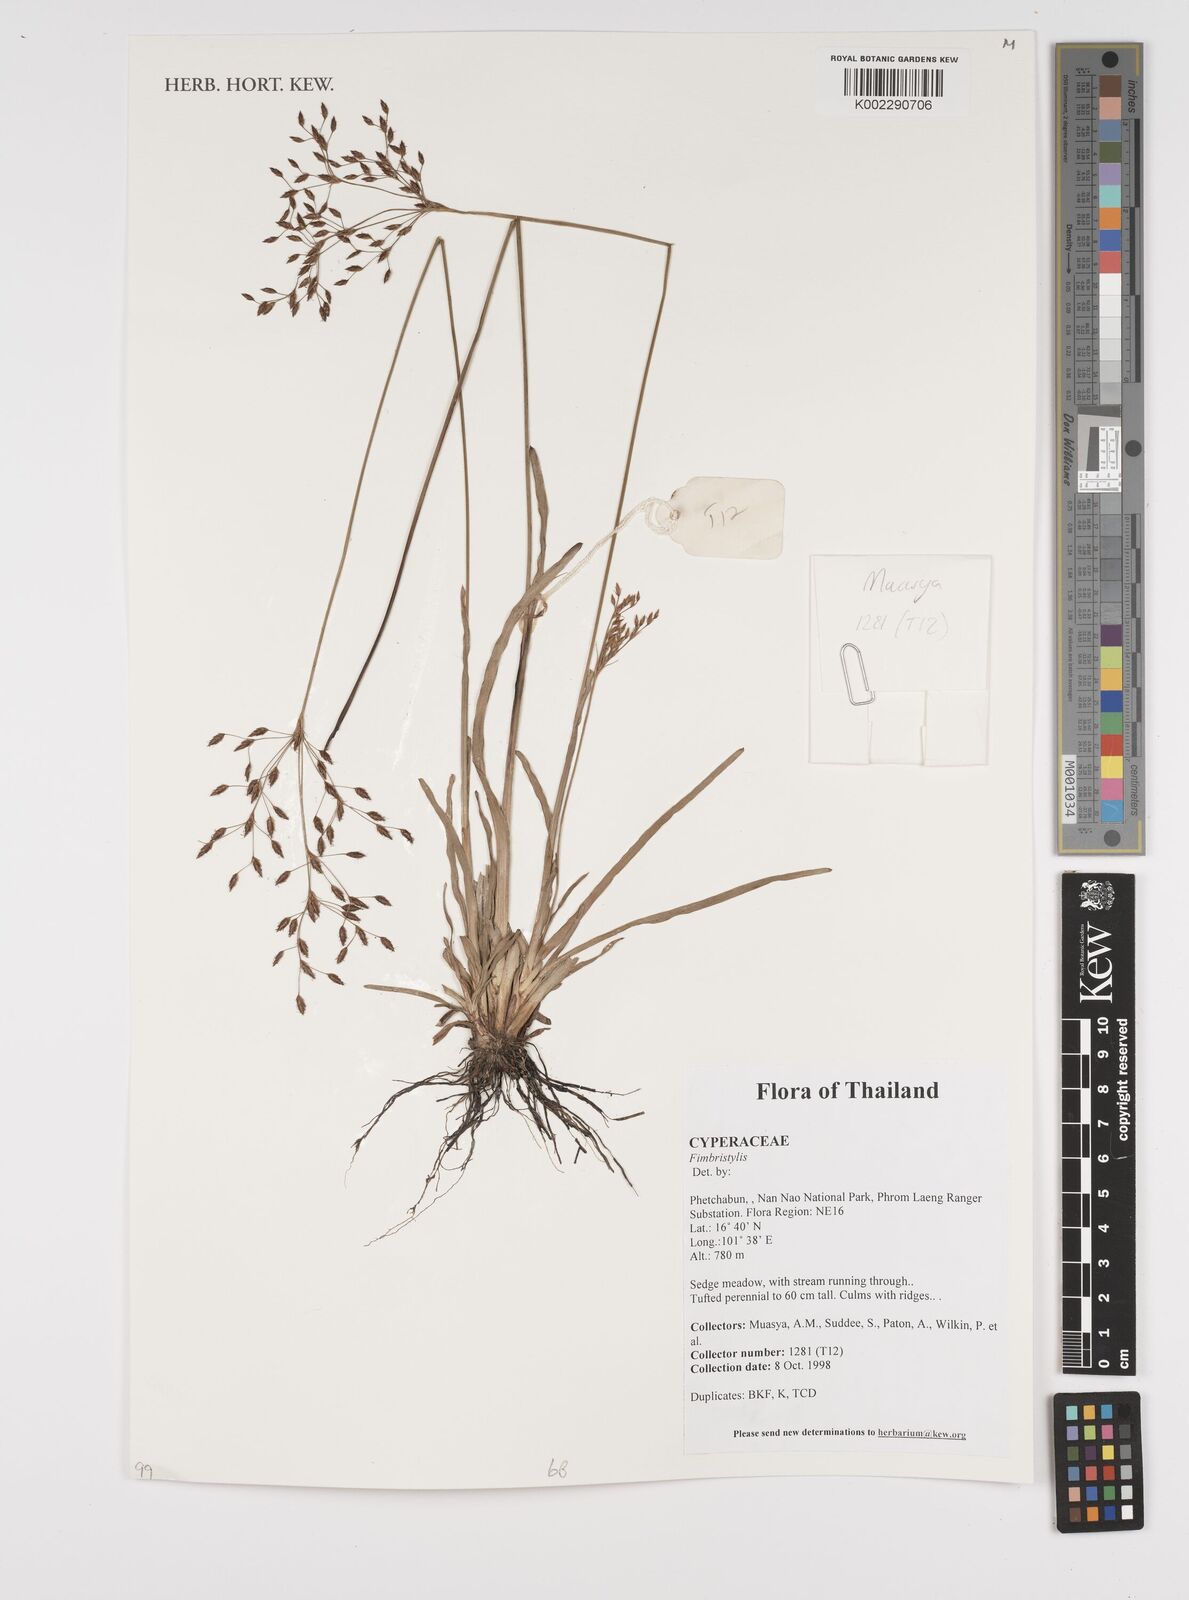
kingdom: Plantae
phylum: Tracheophyta
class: Liliopsida
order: Poales
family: Cyperaceae
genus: Fimbristylis
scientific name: Fimbristylis
